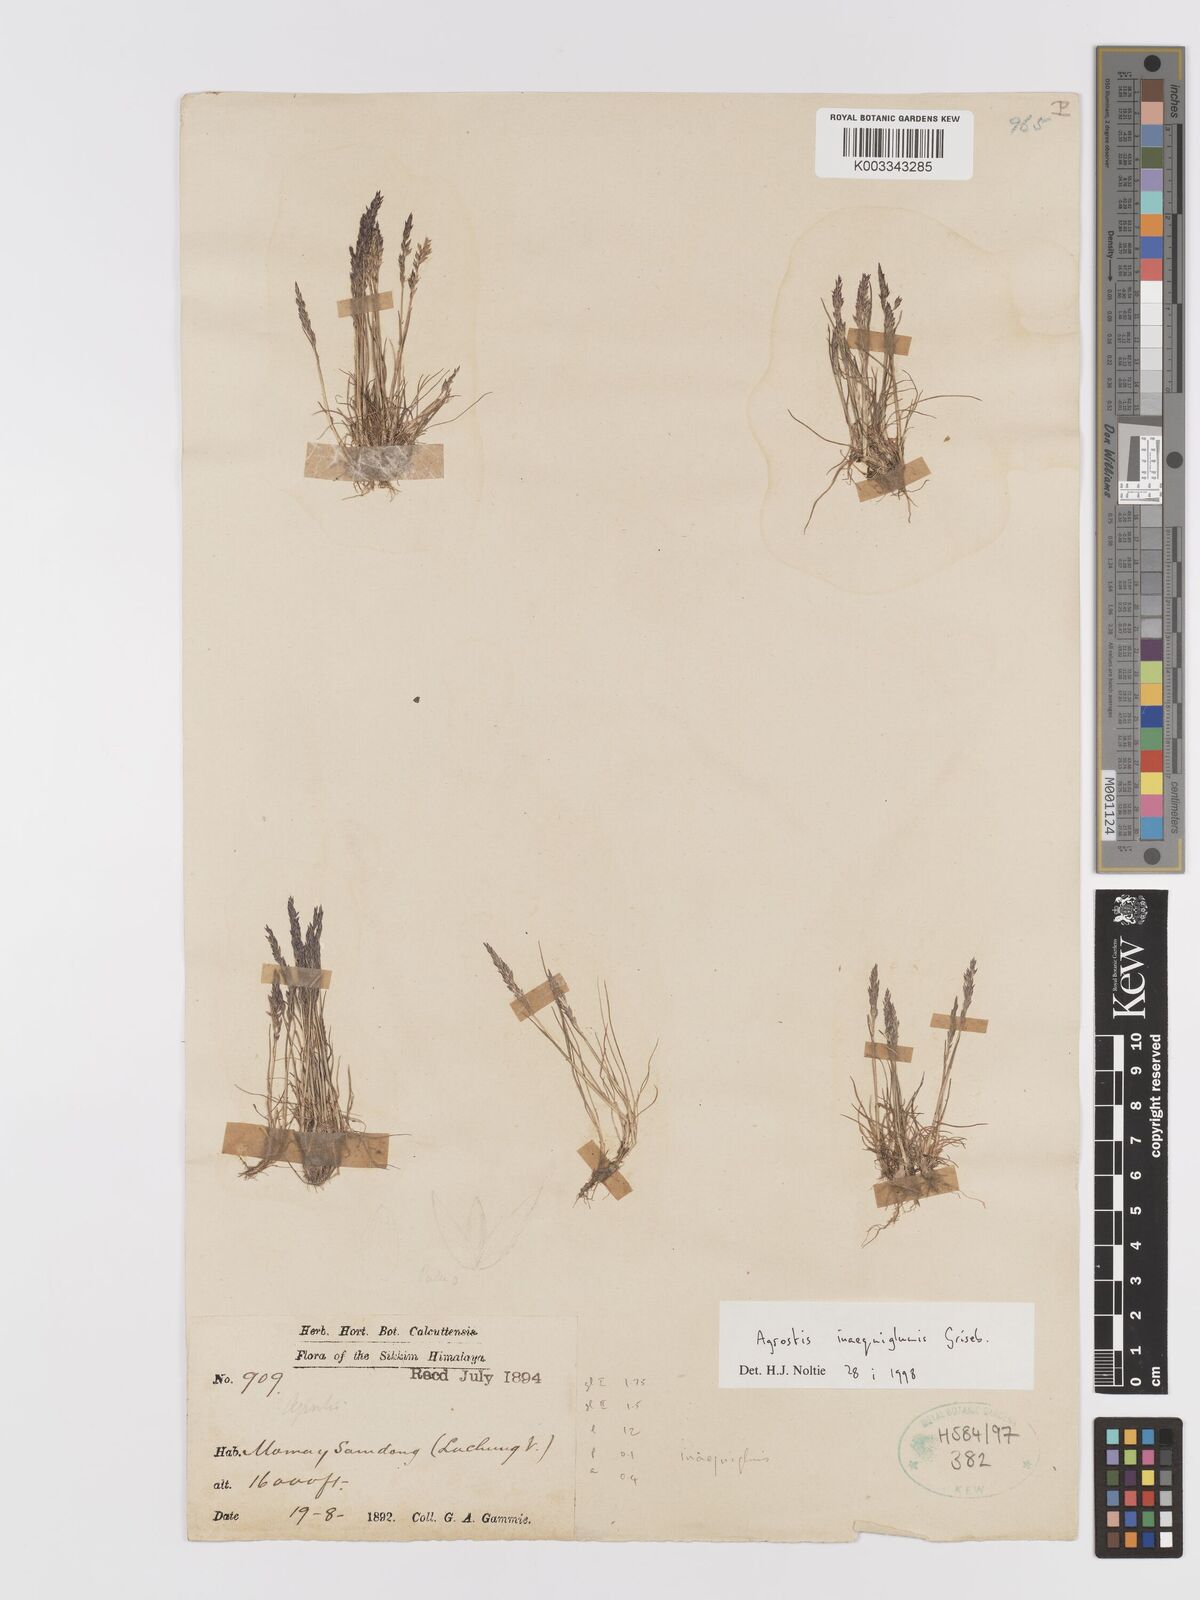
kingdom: Plantae
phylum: Tracheophyta
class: Liliopsida
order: Poales
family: Poaceae
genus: Agrostis
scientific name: Agrostis
